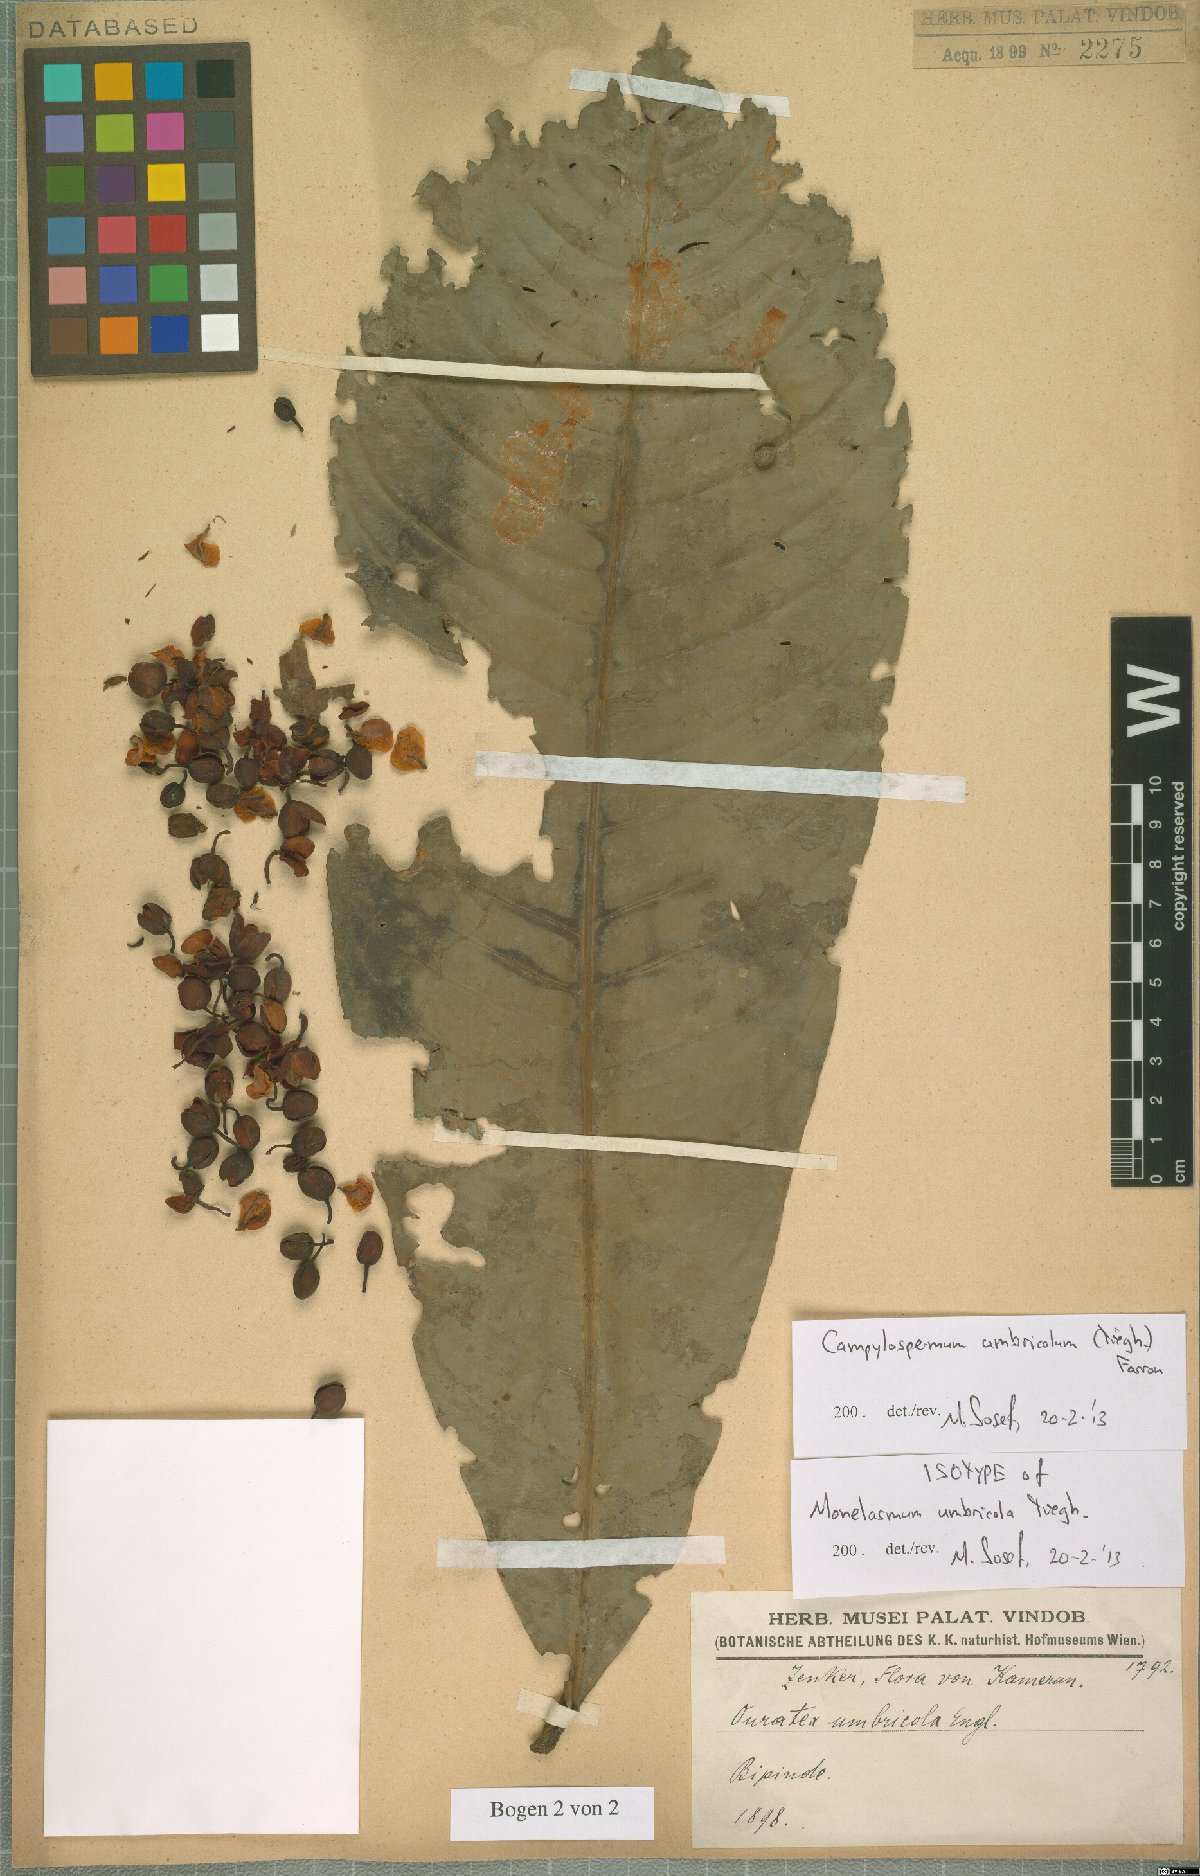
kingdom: Plantae
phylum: Tracheophyta
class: Magnoliopsida
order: Malpighiales
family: Ochnaceae
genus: Campylospermum
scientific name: Campylospermum umbricola
